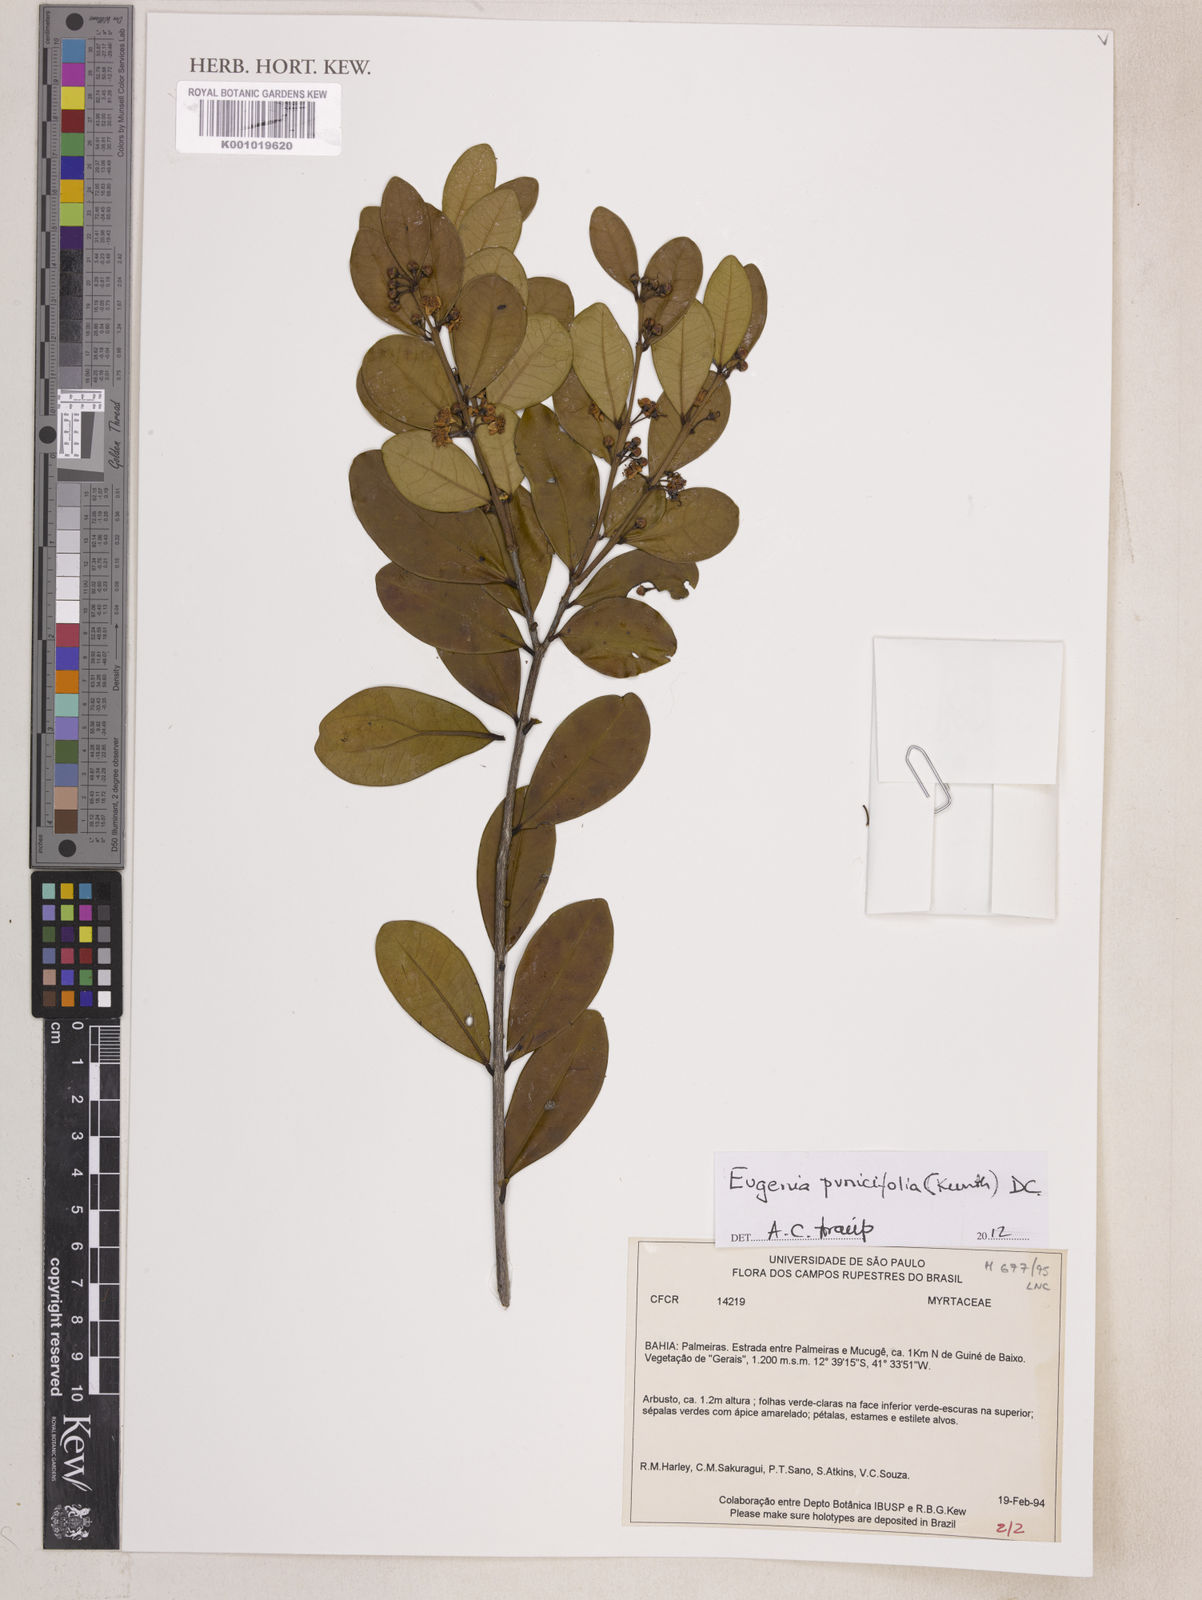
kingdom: Plantae
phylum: Tracheophyta
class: Magnoliopsida
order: Myrtales
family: Myrtaceae
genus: Eugenia
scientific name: Eugenia punicifolia
